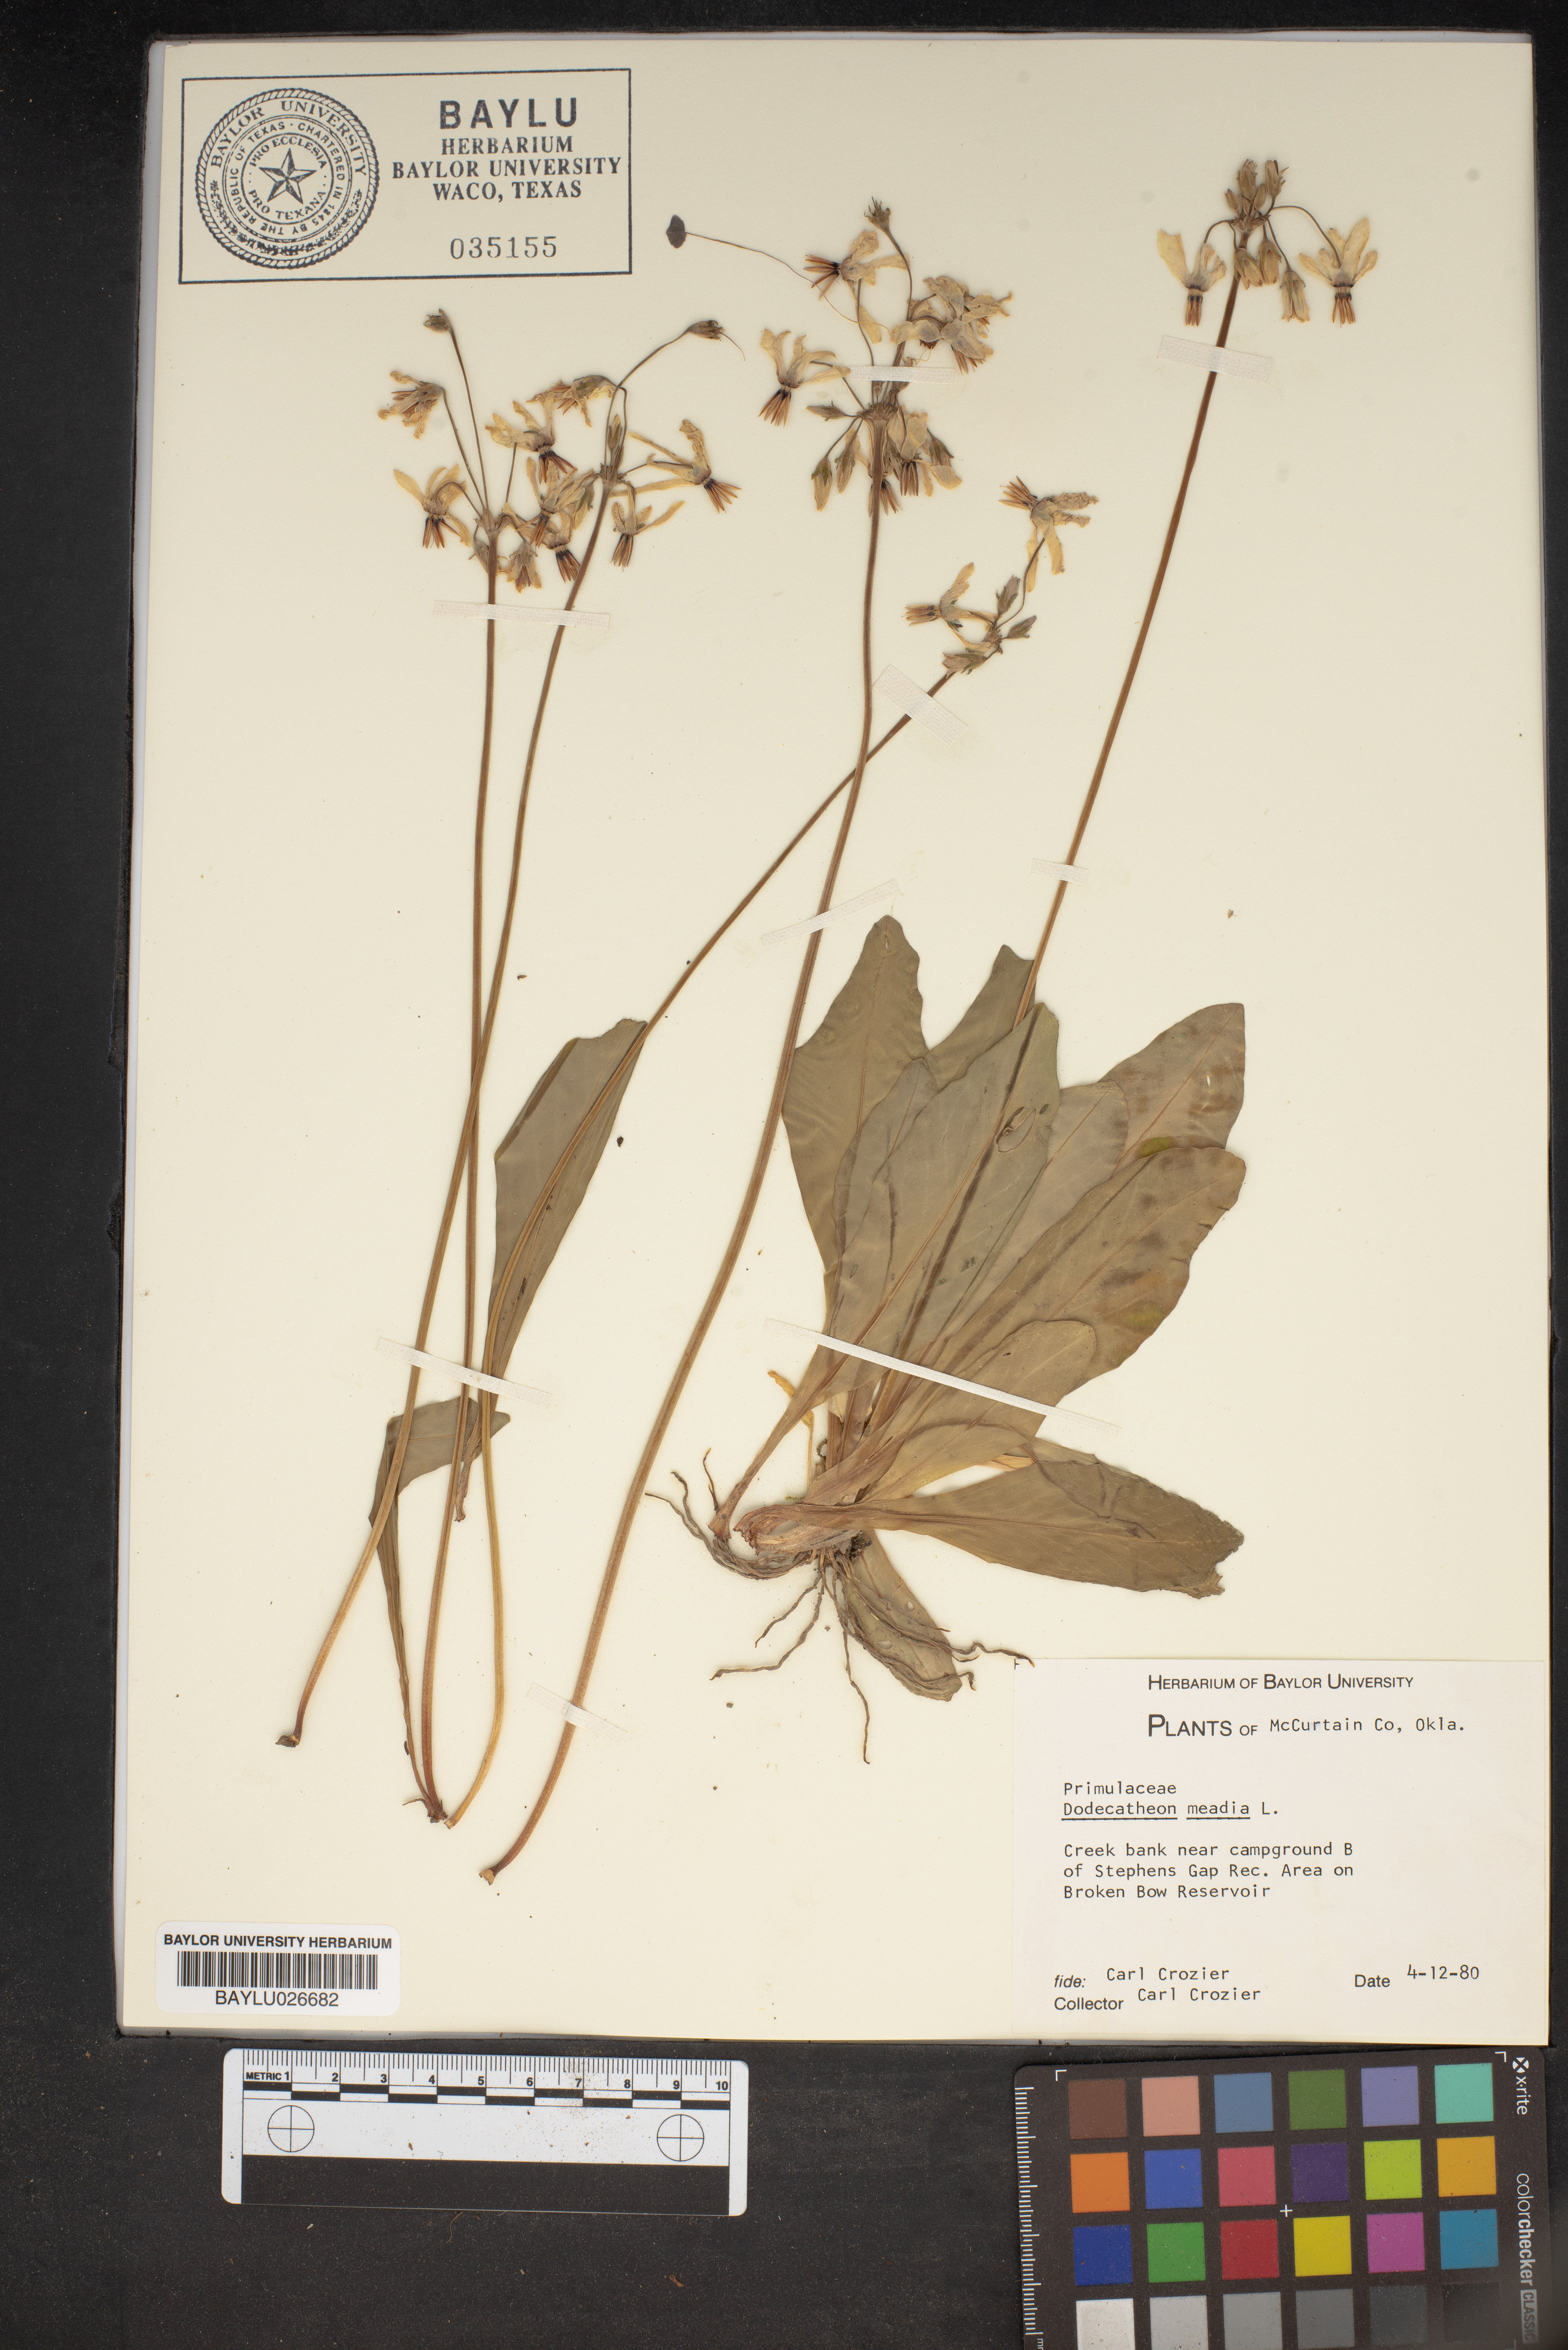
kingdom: Plantae
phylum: Tracheophyta
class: Magnoliopsida
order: Ericales
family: Primulaceae
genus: Dodecatheon
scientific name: Dodecatheon meadia
